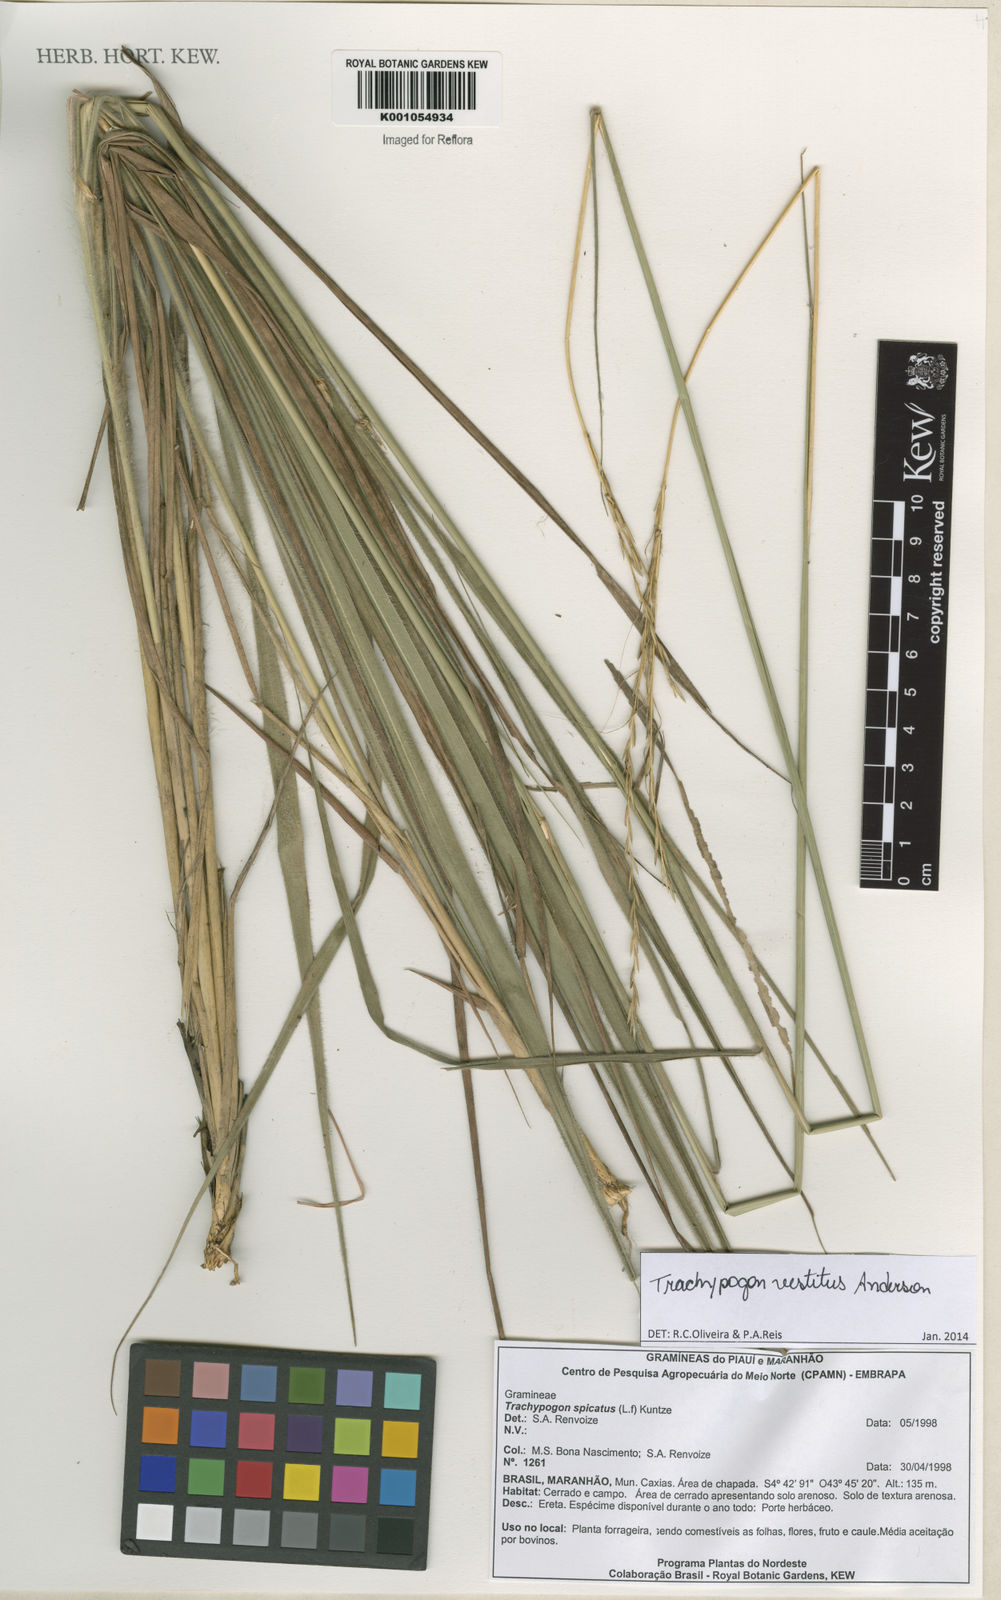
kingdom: Plantae
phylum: Tracheophyta
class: Liliopsida
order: Poales
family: Poaceae
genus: Trachypogon
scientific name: Trachypogon vestitus
